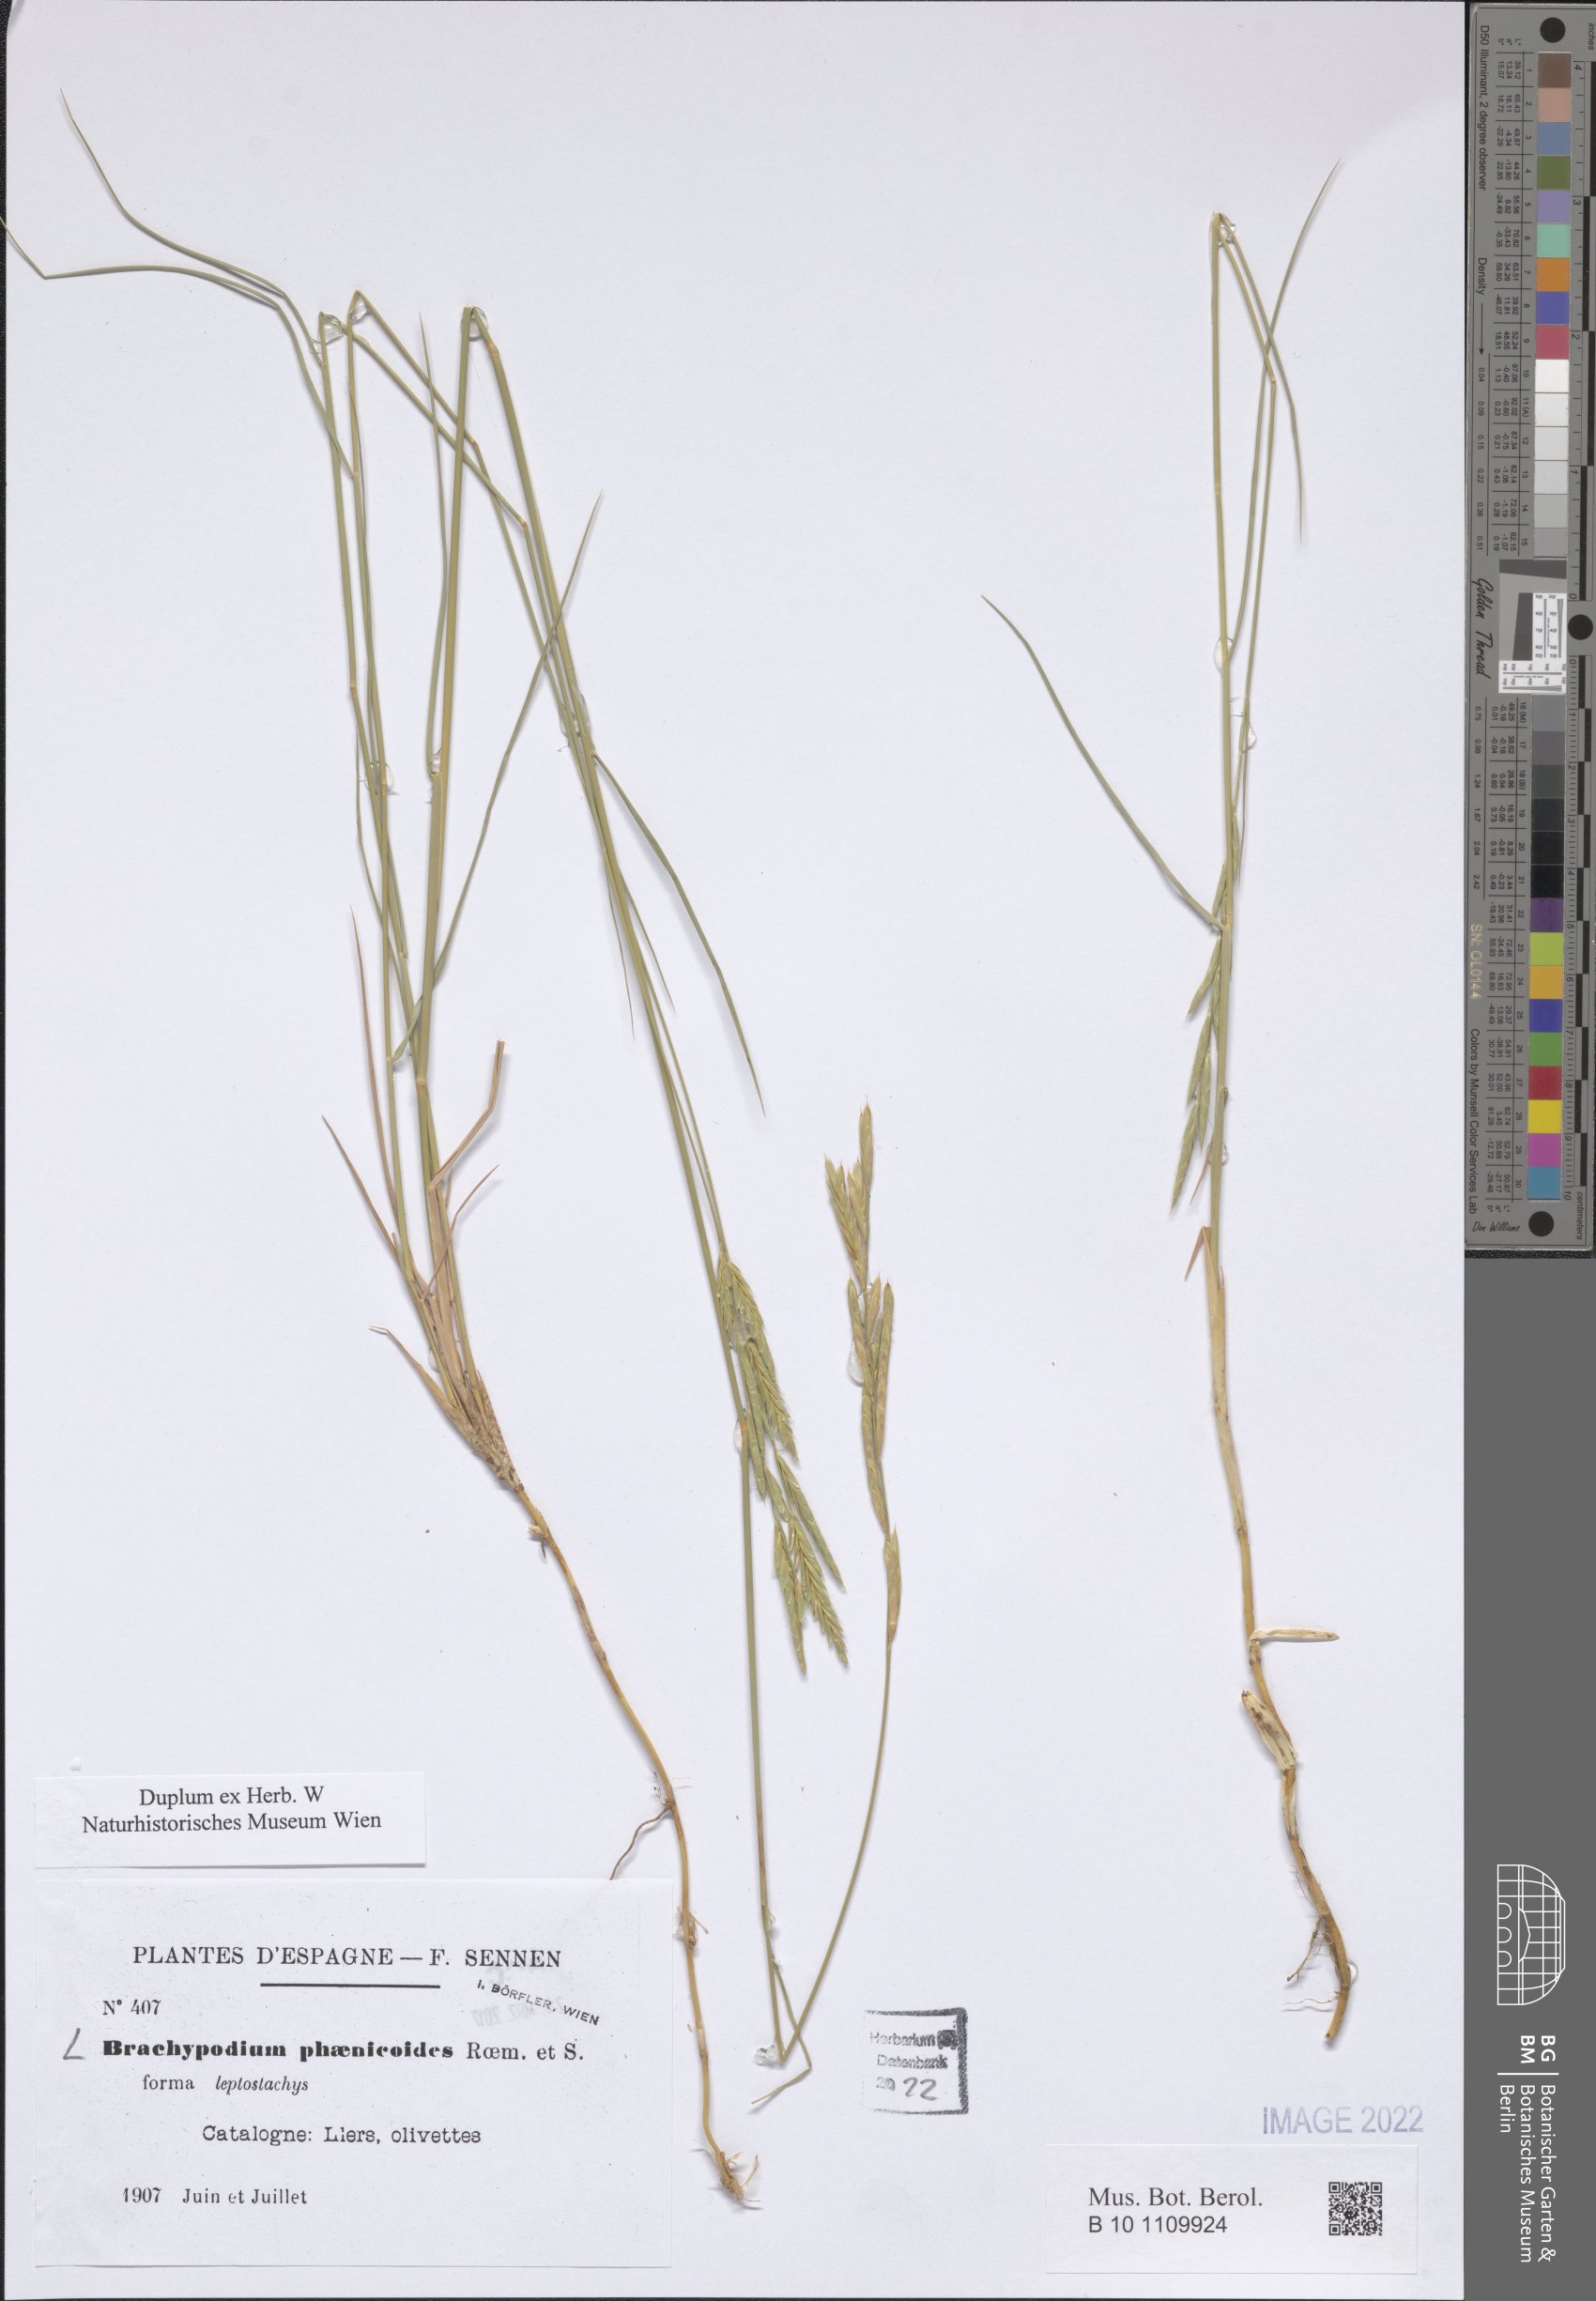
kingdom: Plantae
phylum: Tracheophyta
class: Liliopsida
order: Poales
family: Poaceae
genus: Brachypodium
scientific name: Brachypodium phoenicoides
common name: Thinleaf false brome
